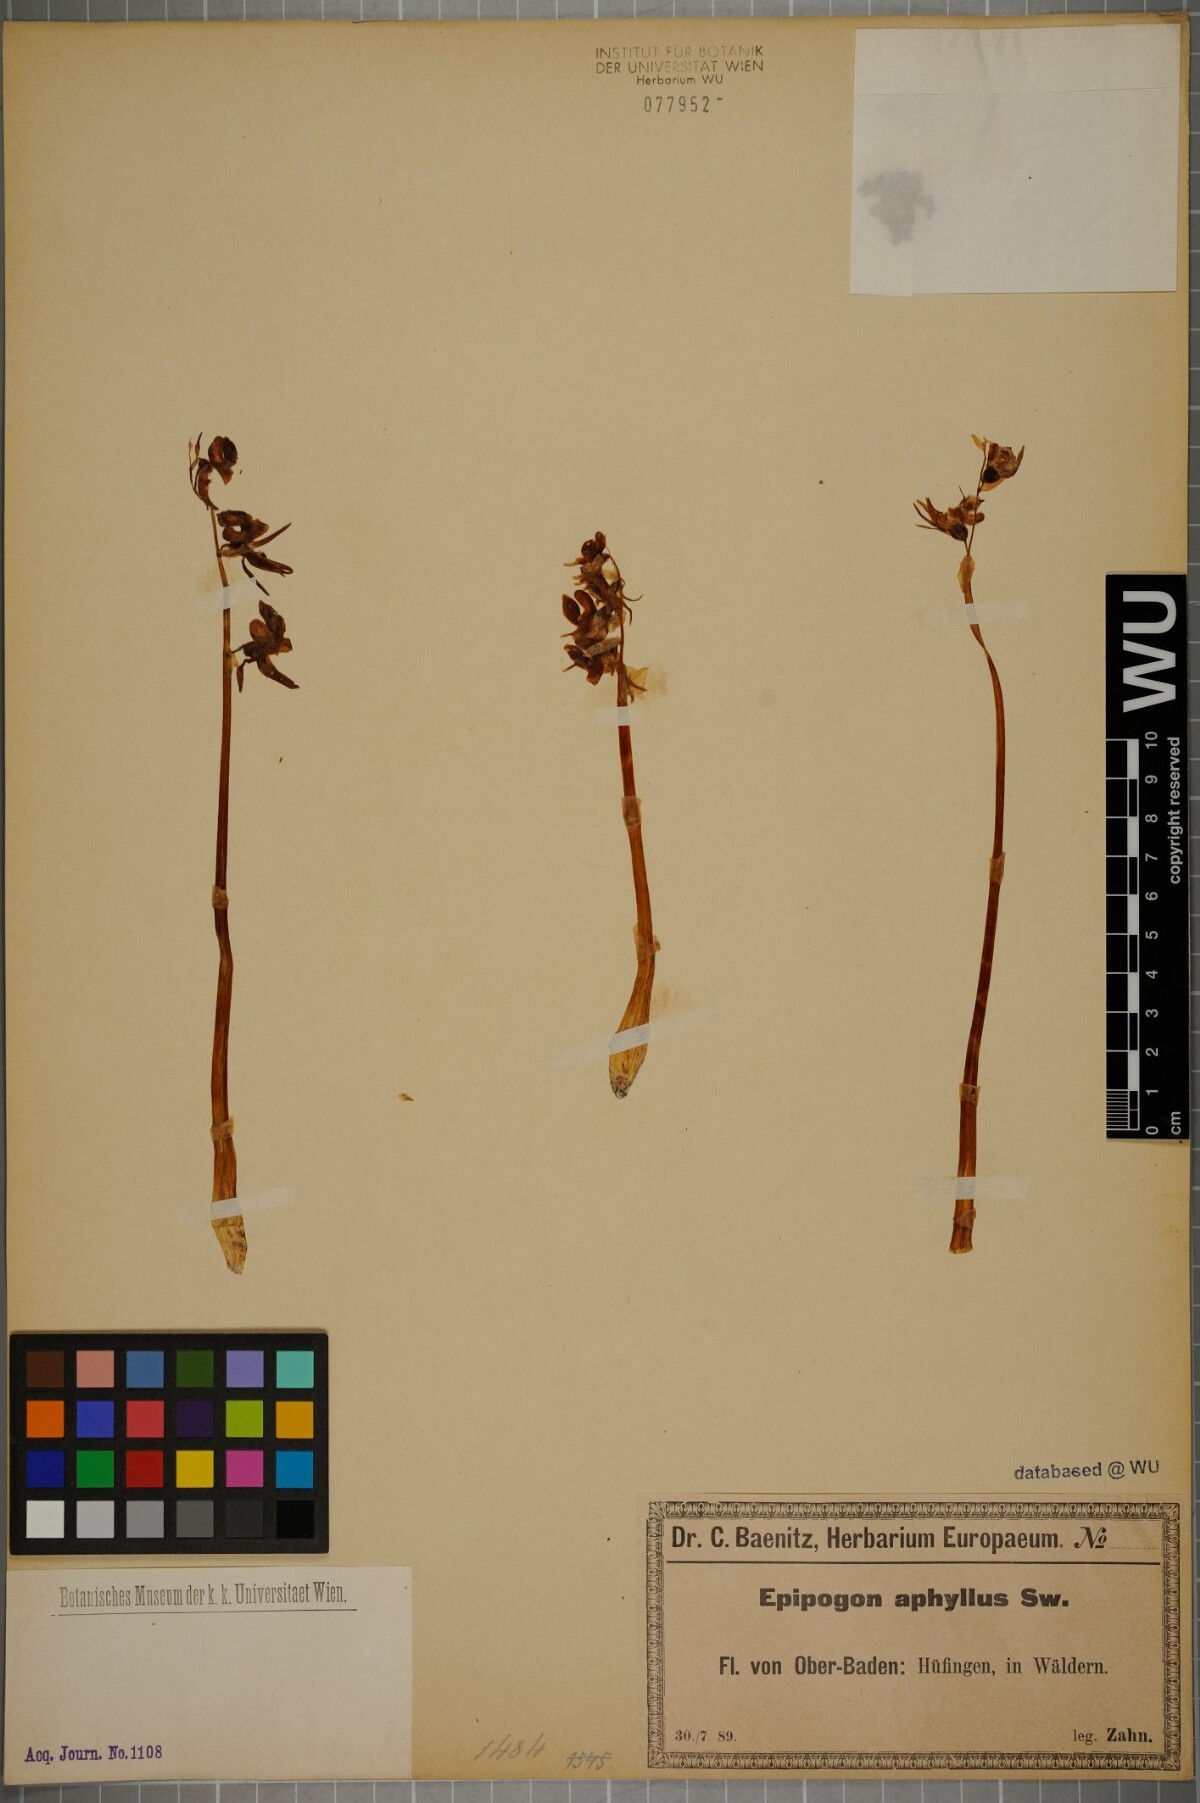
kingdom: Plantae
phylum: Tracheophyta
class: Liliopsida
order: Asparagales
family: Orchidaceae
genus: Epipogium
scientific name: Epipogium aphyllum
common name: Ghost orchid
